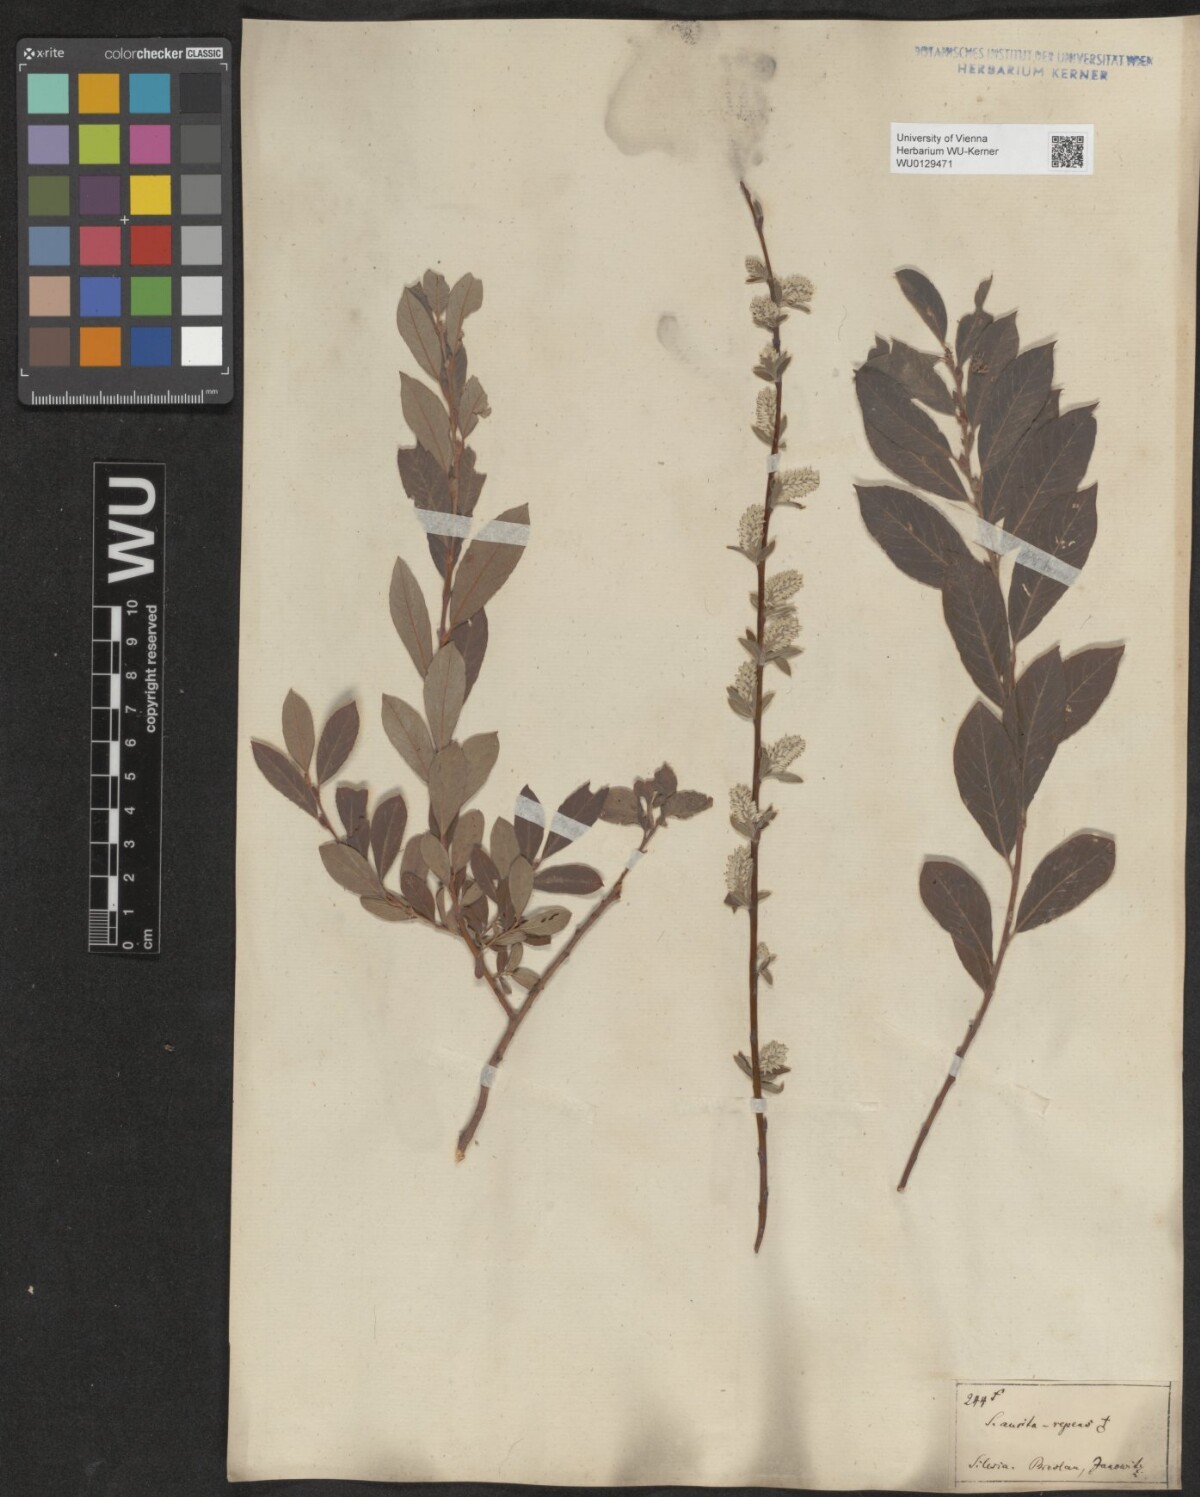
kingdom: Plantae
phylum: Tracheophyta
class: Magnoliopsida
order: Malpighiales
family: Salicaceae
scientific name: Salicaceae
